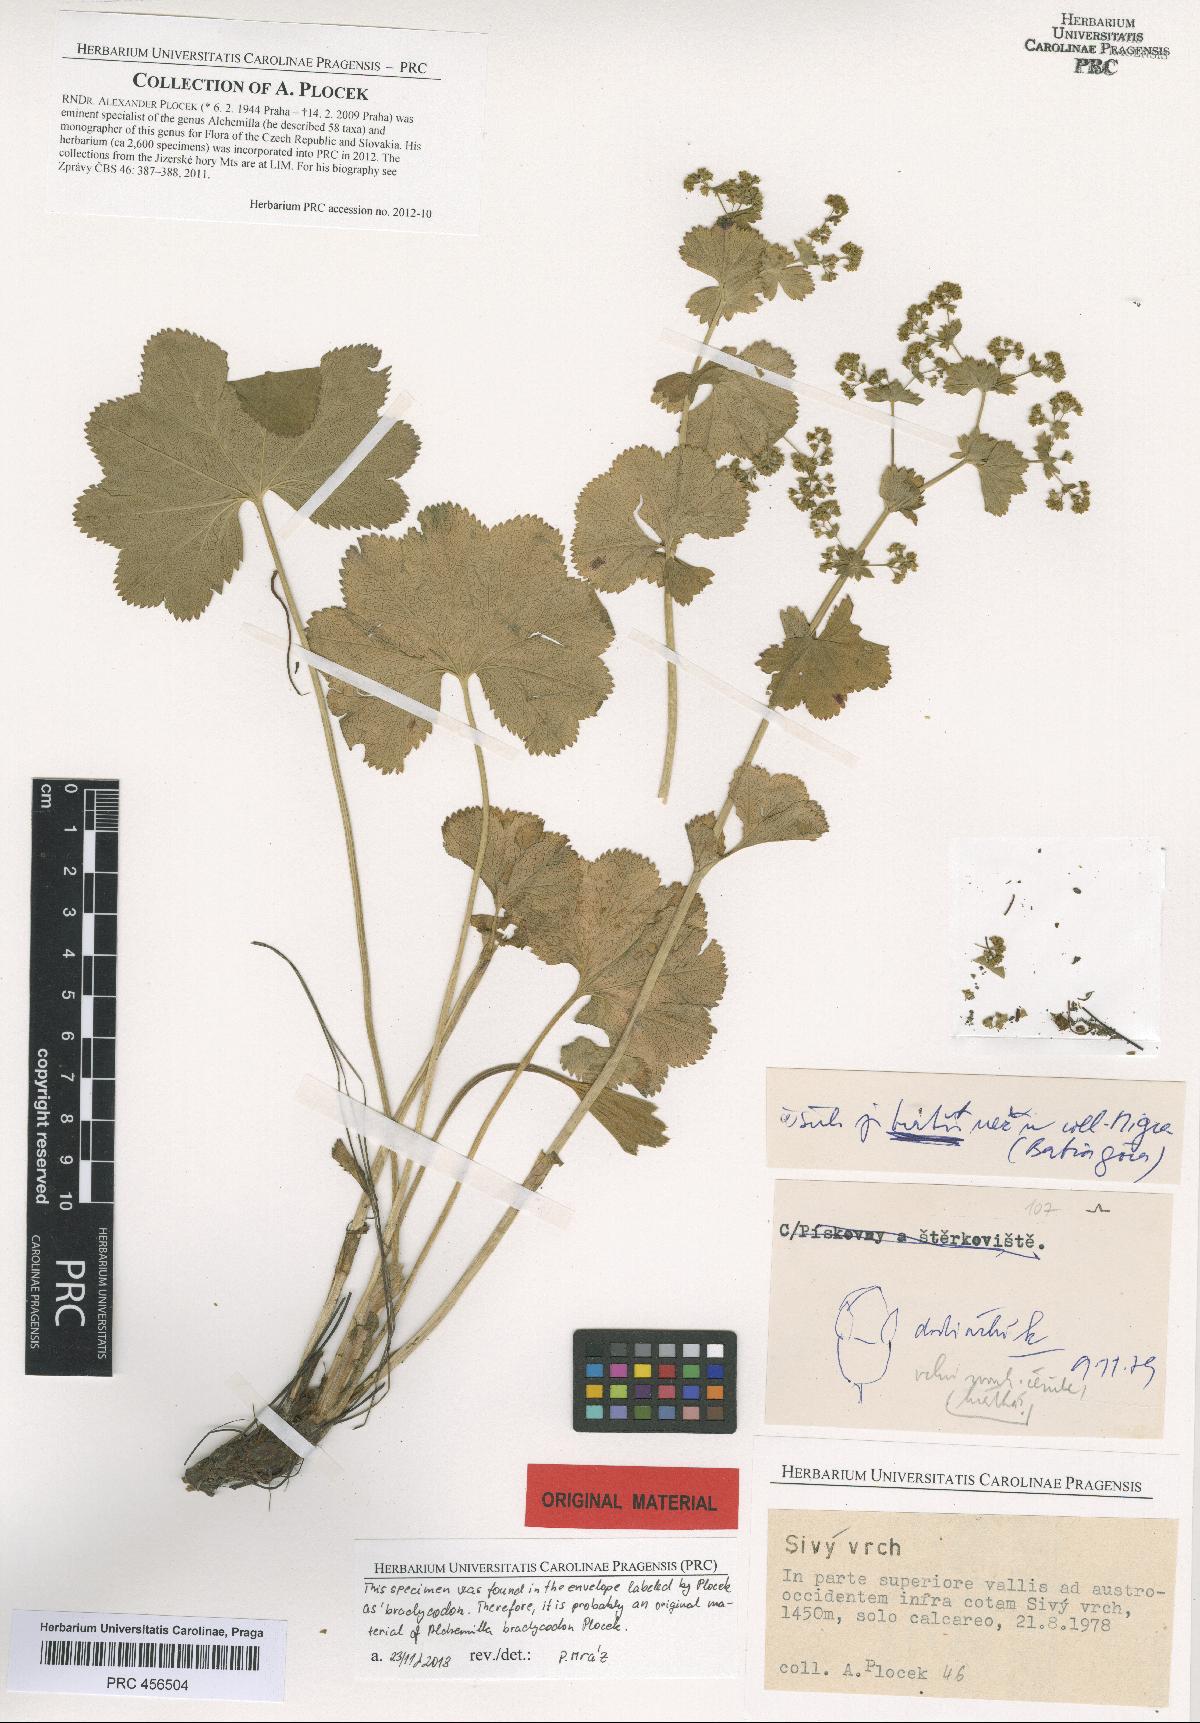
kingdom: Plantae
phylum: Tracheophyta
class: Magnoliopsida
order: Rosales
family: Rosaceae
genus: Alchemilla
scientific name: Alchemilla brachycodon
